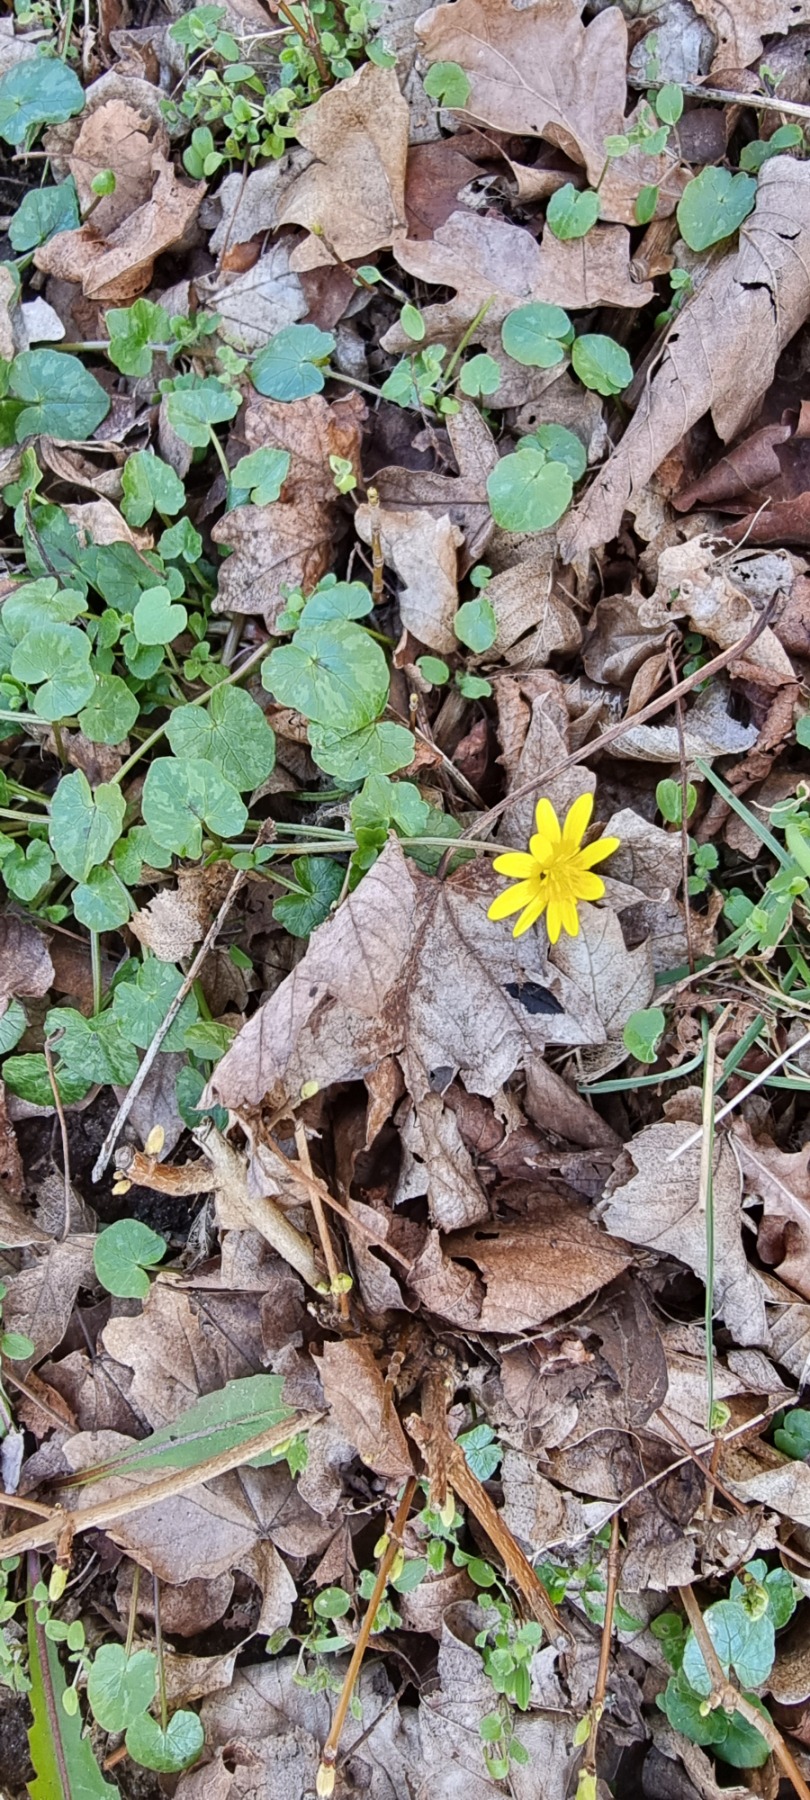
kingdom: Plantae
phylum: Tracheophyta
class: Magnoliopsida
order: Ranunculales
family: Ranunculaceae
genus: Ficaria
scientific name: Ficaria verna
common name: Vorterod
